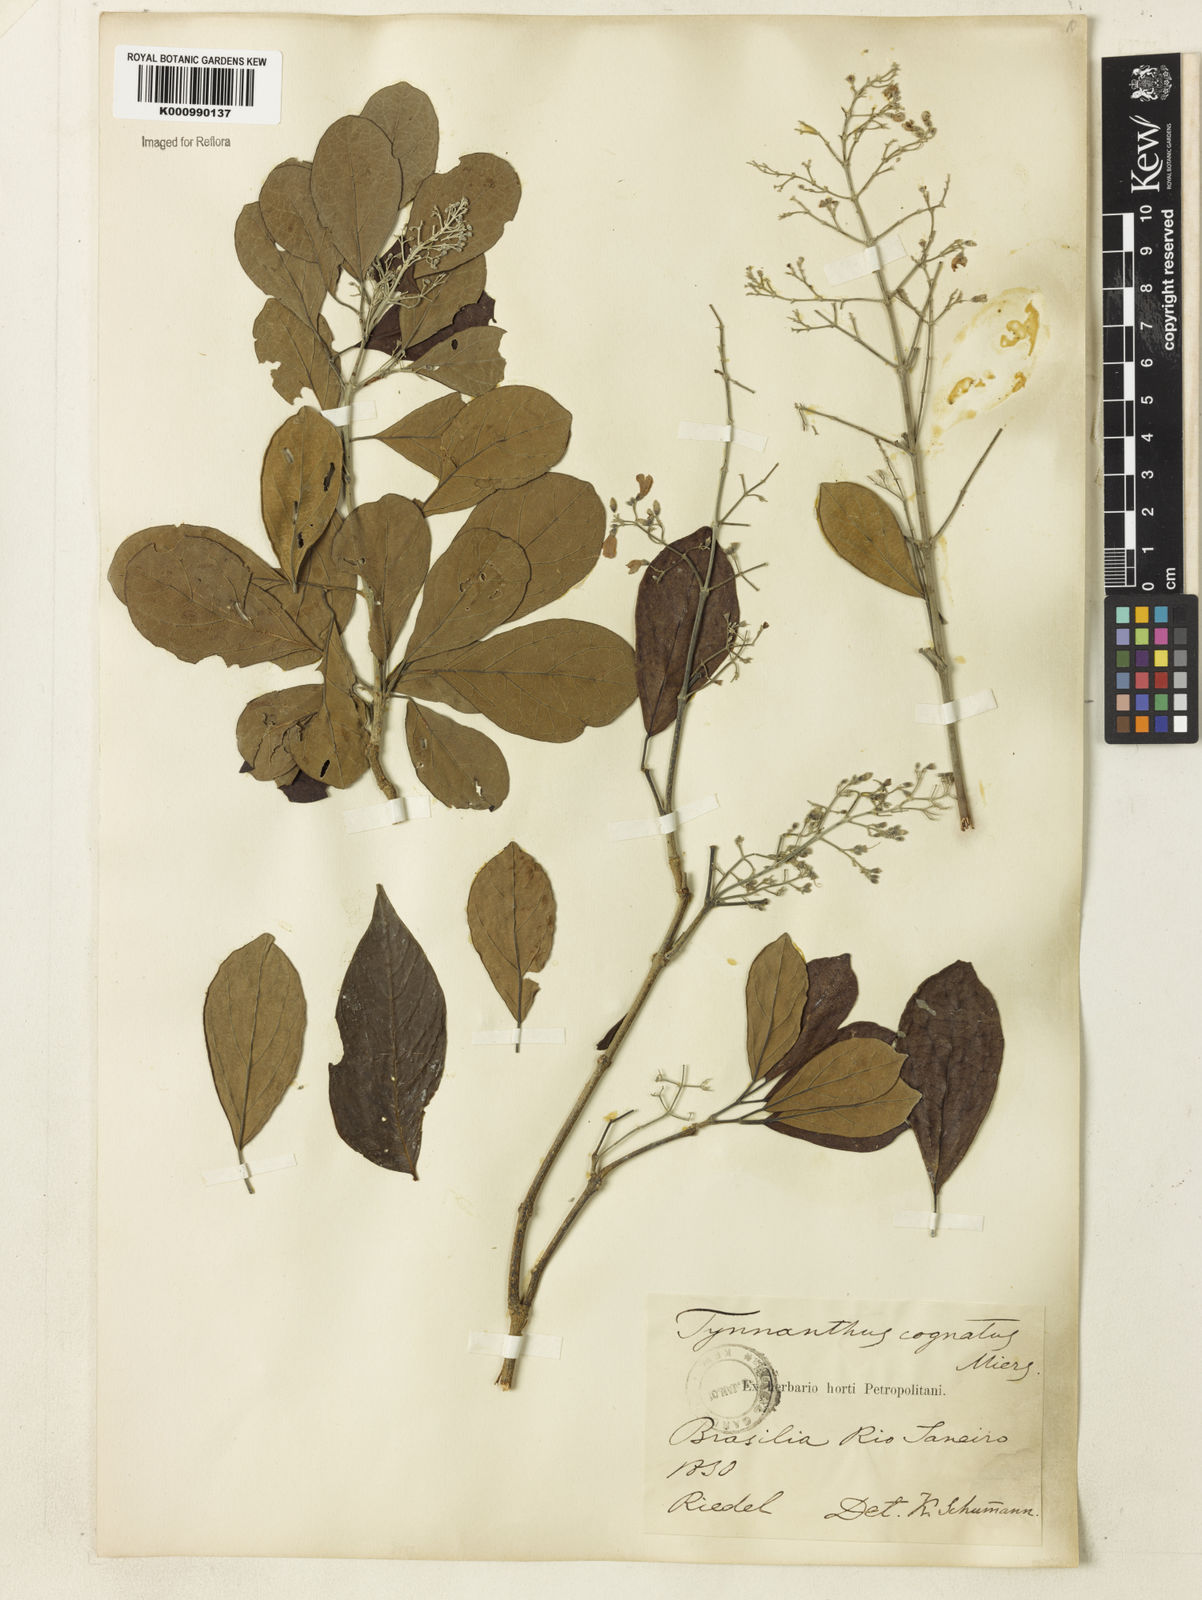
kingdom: Plantae
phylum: Tracheophyta
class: Magnoliopsida
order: Lamiales
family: Bignoniaceae
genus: Tynanthus
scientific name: Tynanthus cognatus
